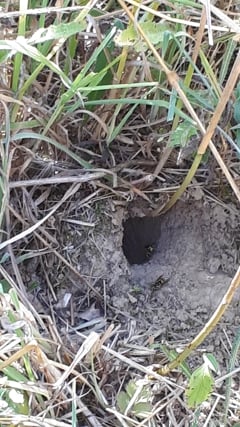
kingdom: Animalia
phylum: Arthropoda
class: Insecta
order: Hymenoptera
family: Vespidae
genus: Vespula
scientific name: Vespula germanica
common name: German wasp
